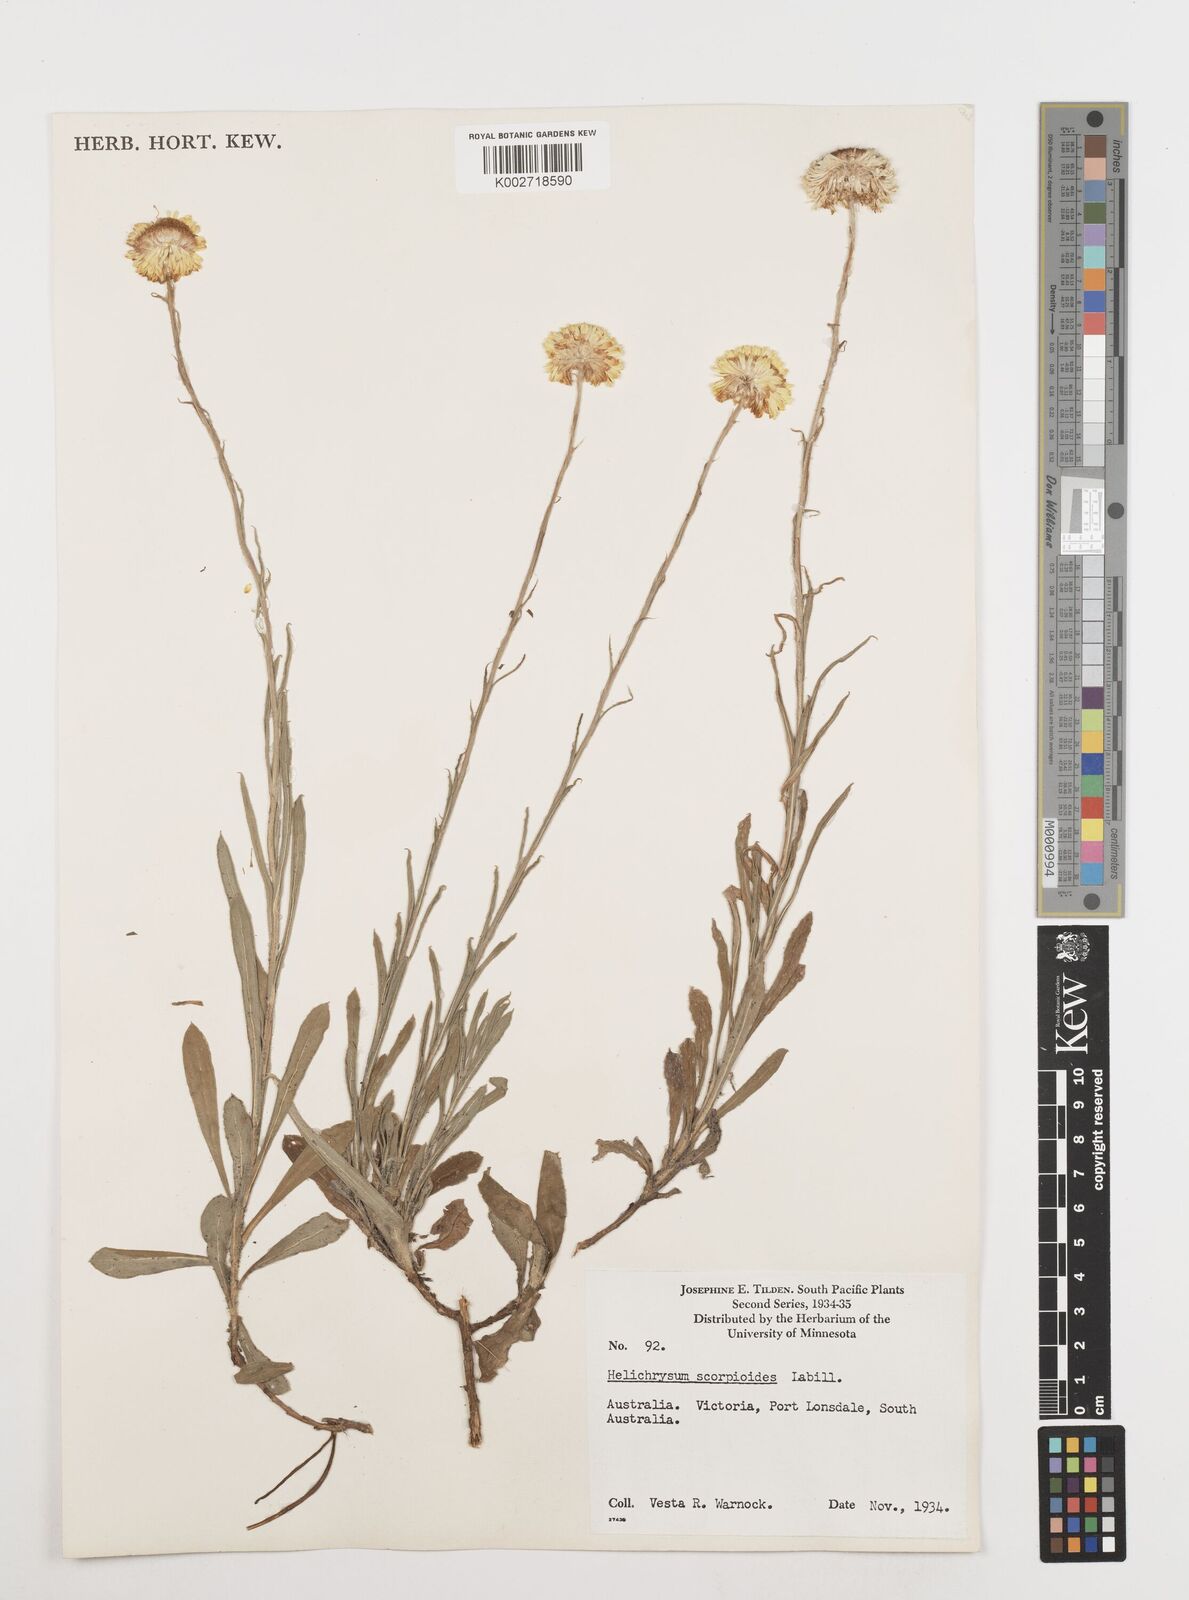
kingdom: Plantae
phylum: Tracheophyta
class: Magnoliopsida
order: Asterales
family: Asteraceae
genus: Coronidium
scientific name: Coronidium scorpioides
